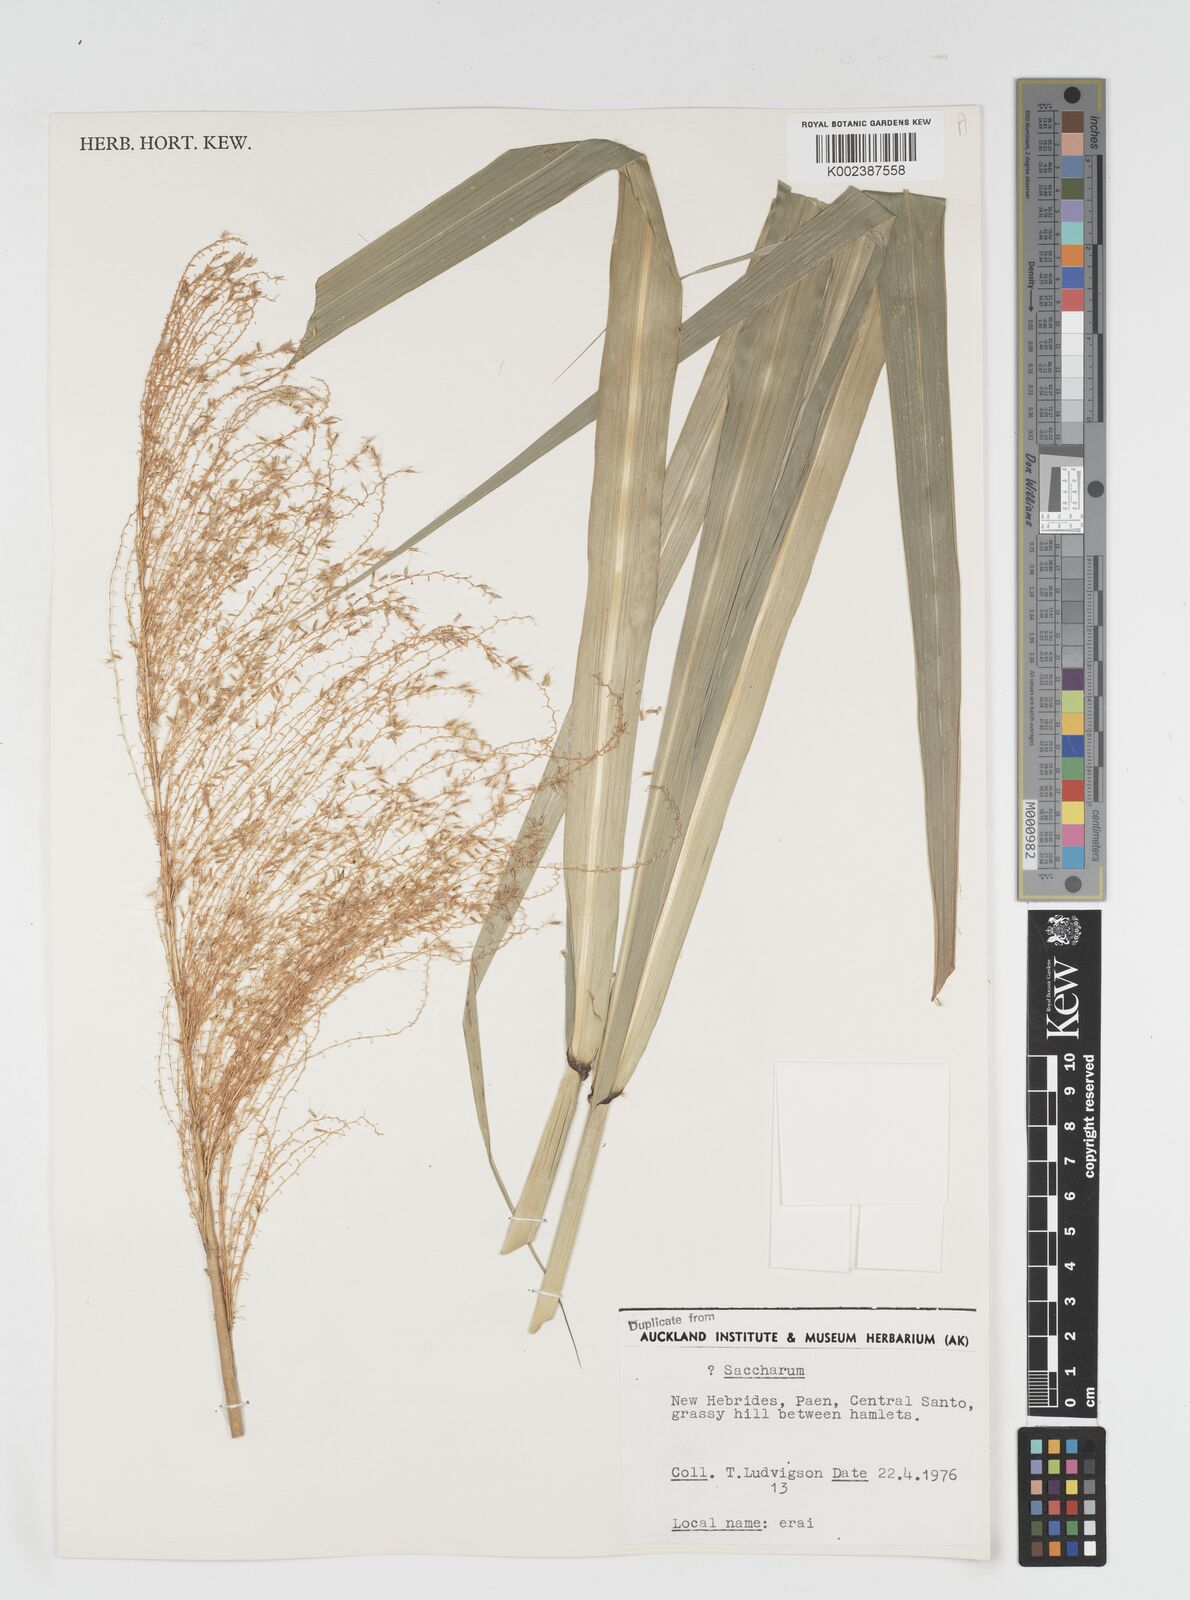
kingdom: Plantae
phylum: Tracheophyta
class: Liliopsida
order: Poales
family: Poaceae
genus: Miscanthus
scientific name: Miscanthus floridulus
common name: Pacific island silvergrass
